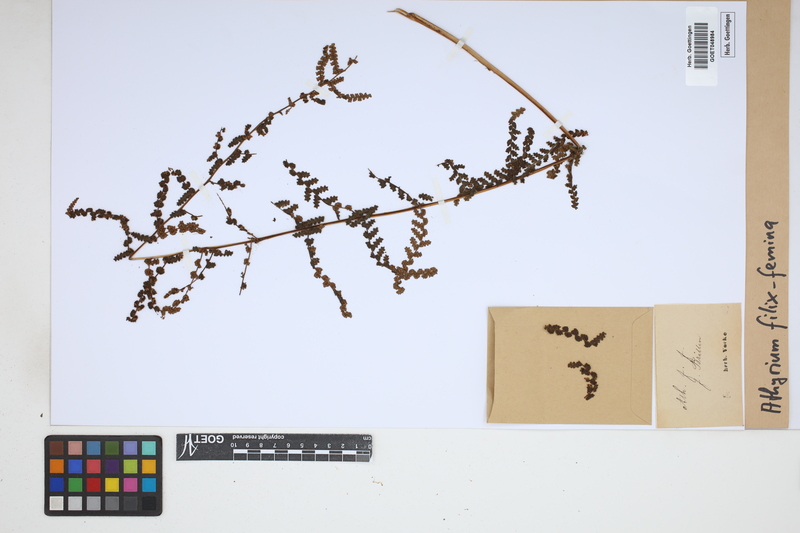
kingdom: Plantae
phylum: Tracheophyta
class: Polypodiopsida
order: Polypodiales
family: Athyriaceae
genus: Athyrium
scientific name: Athyrium filix-femina
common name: Lady fern
